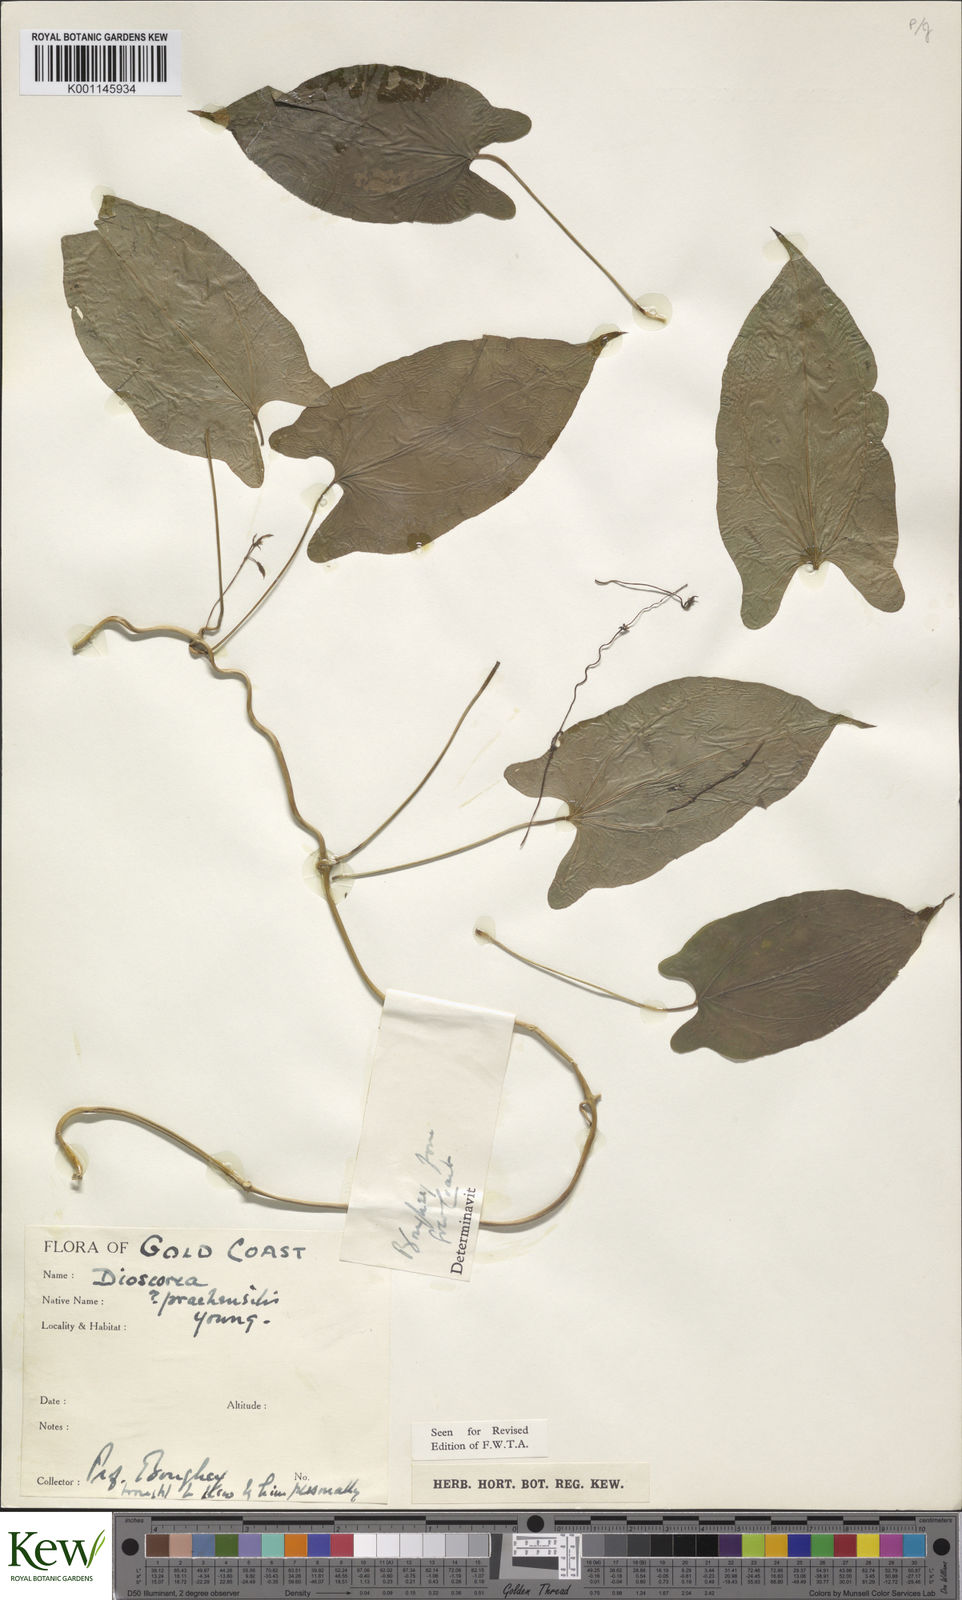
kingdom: Plantae
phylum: Tracheophyta
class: Liliopsida
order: Dioscoreales
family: Dioscoreaceae
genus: Dioscorea
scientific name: Dioscorea praehensilis
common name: Bush yam
